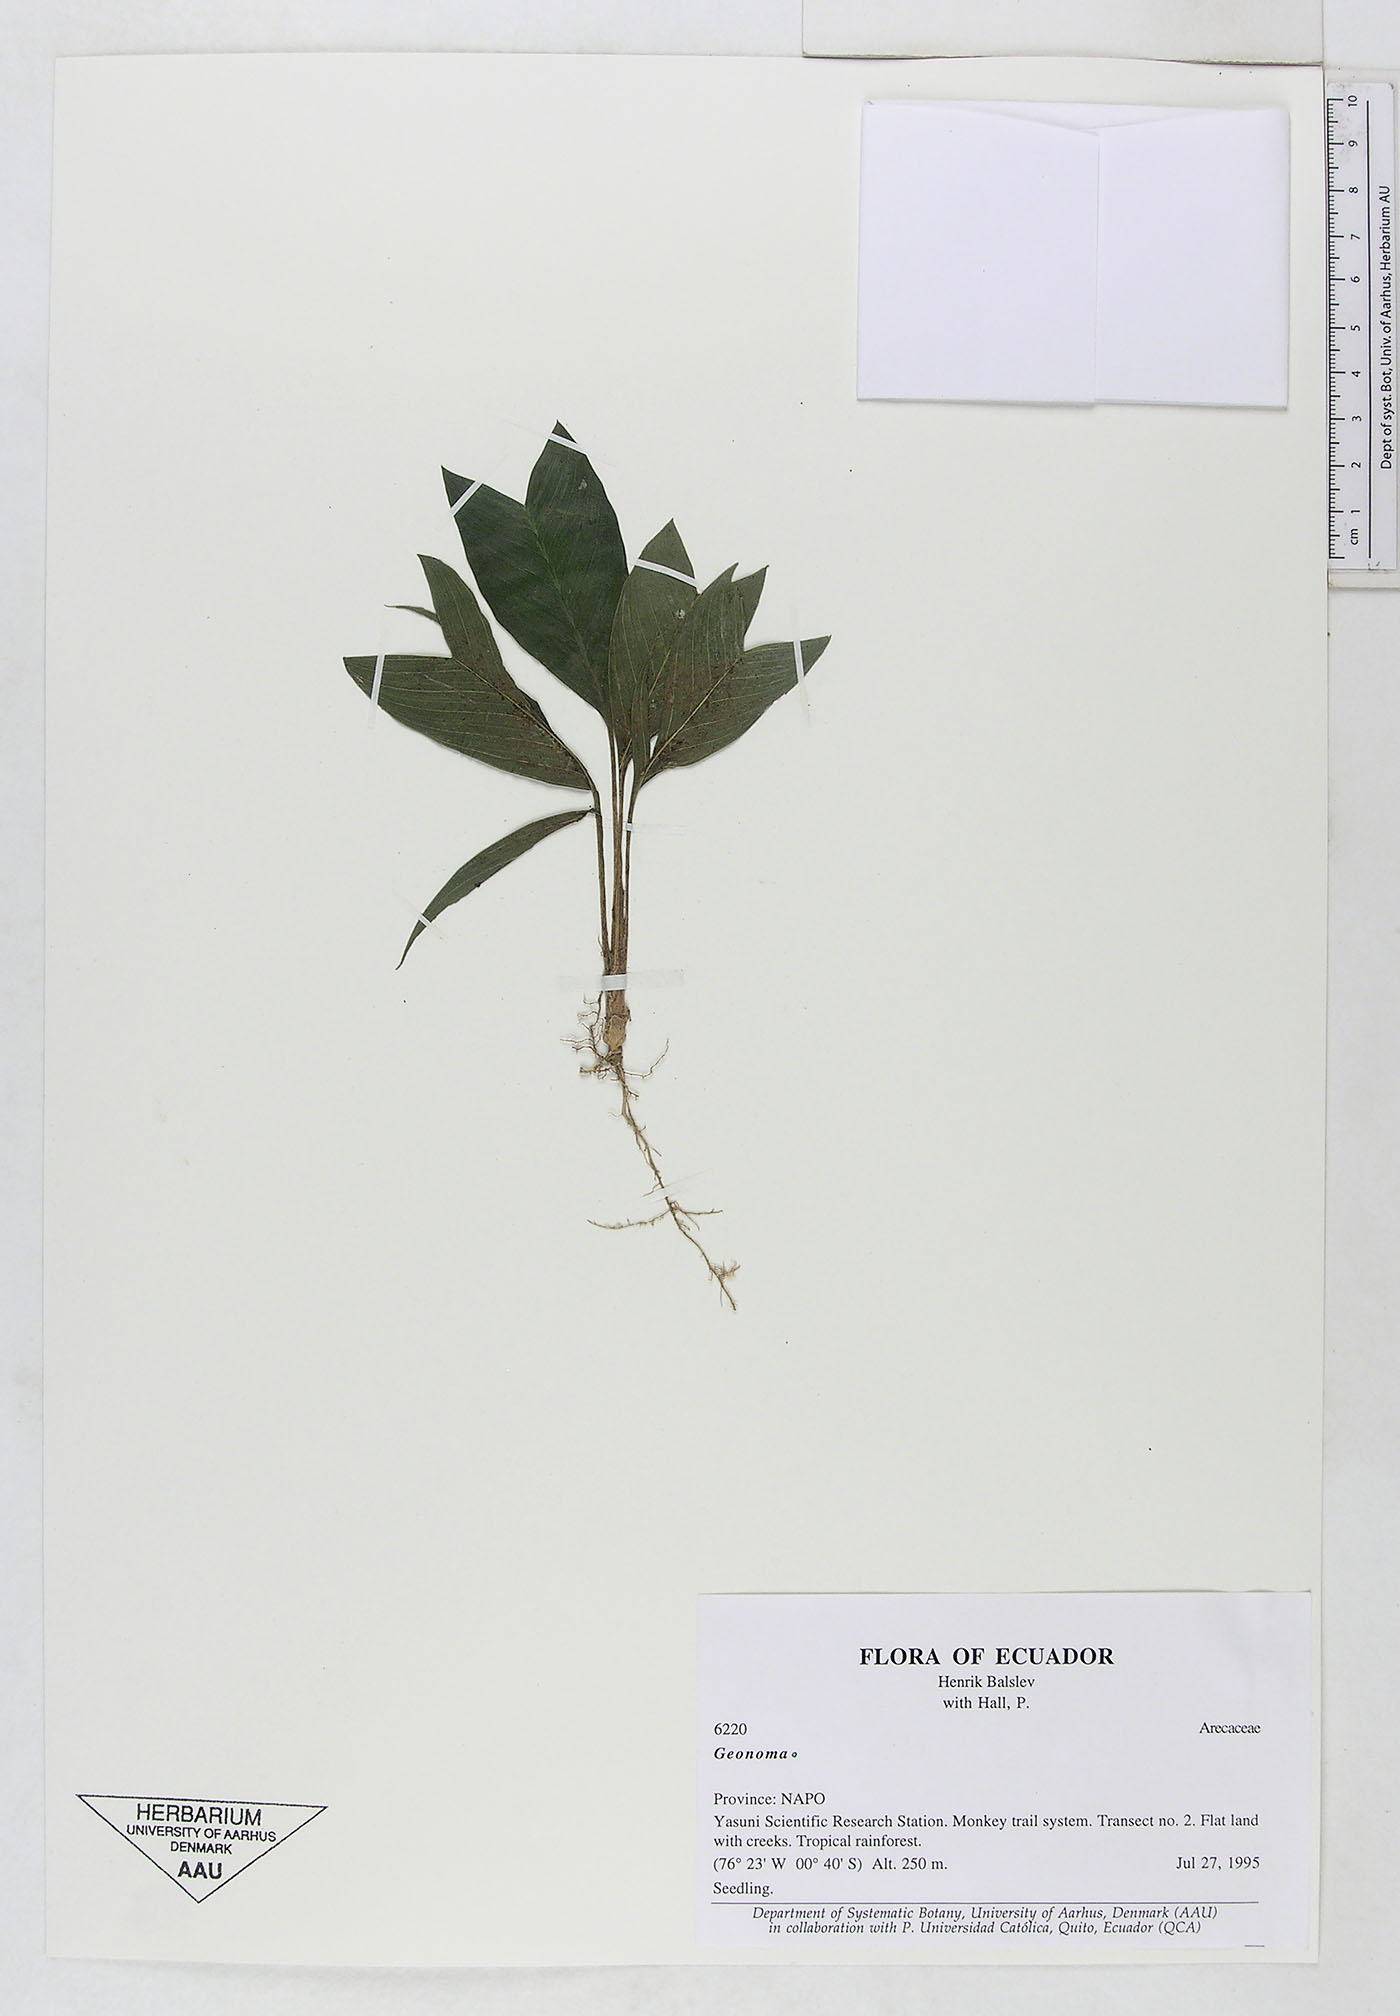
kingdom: Plantae
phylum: Tracheophyta
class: Liliopsida
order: Arecales
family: Arecaceae
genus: Geonoma
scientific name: Geonoma
